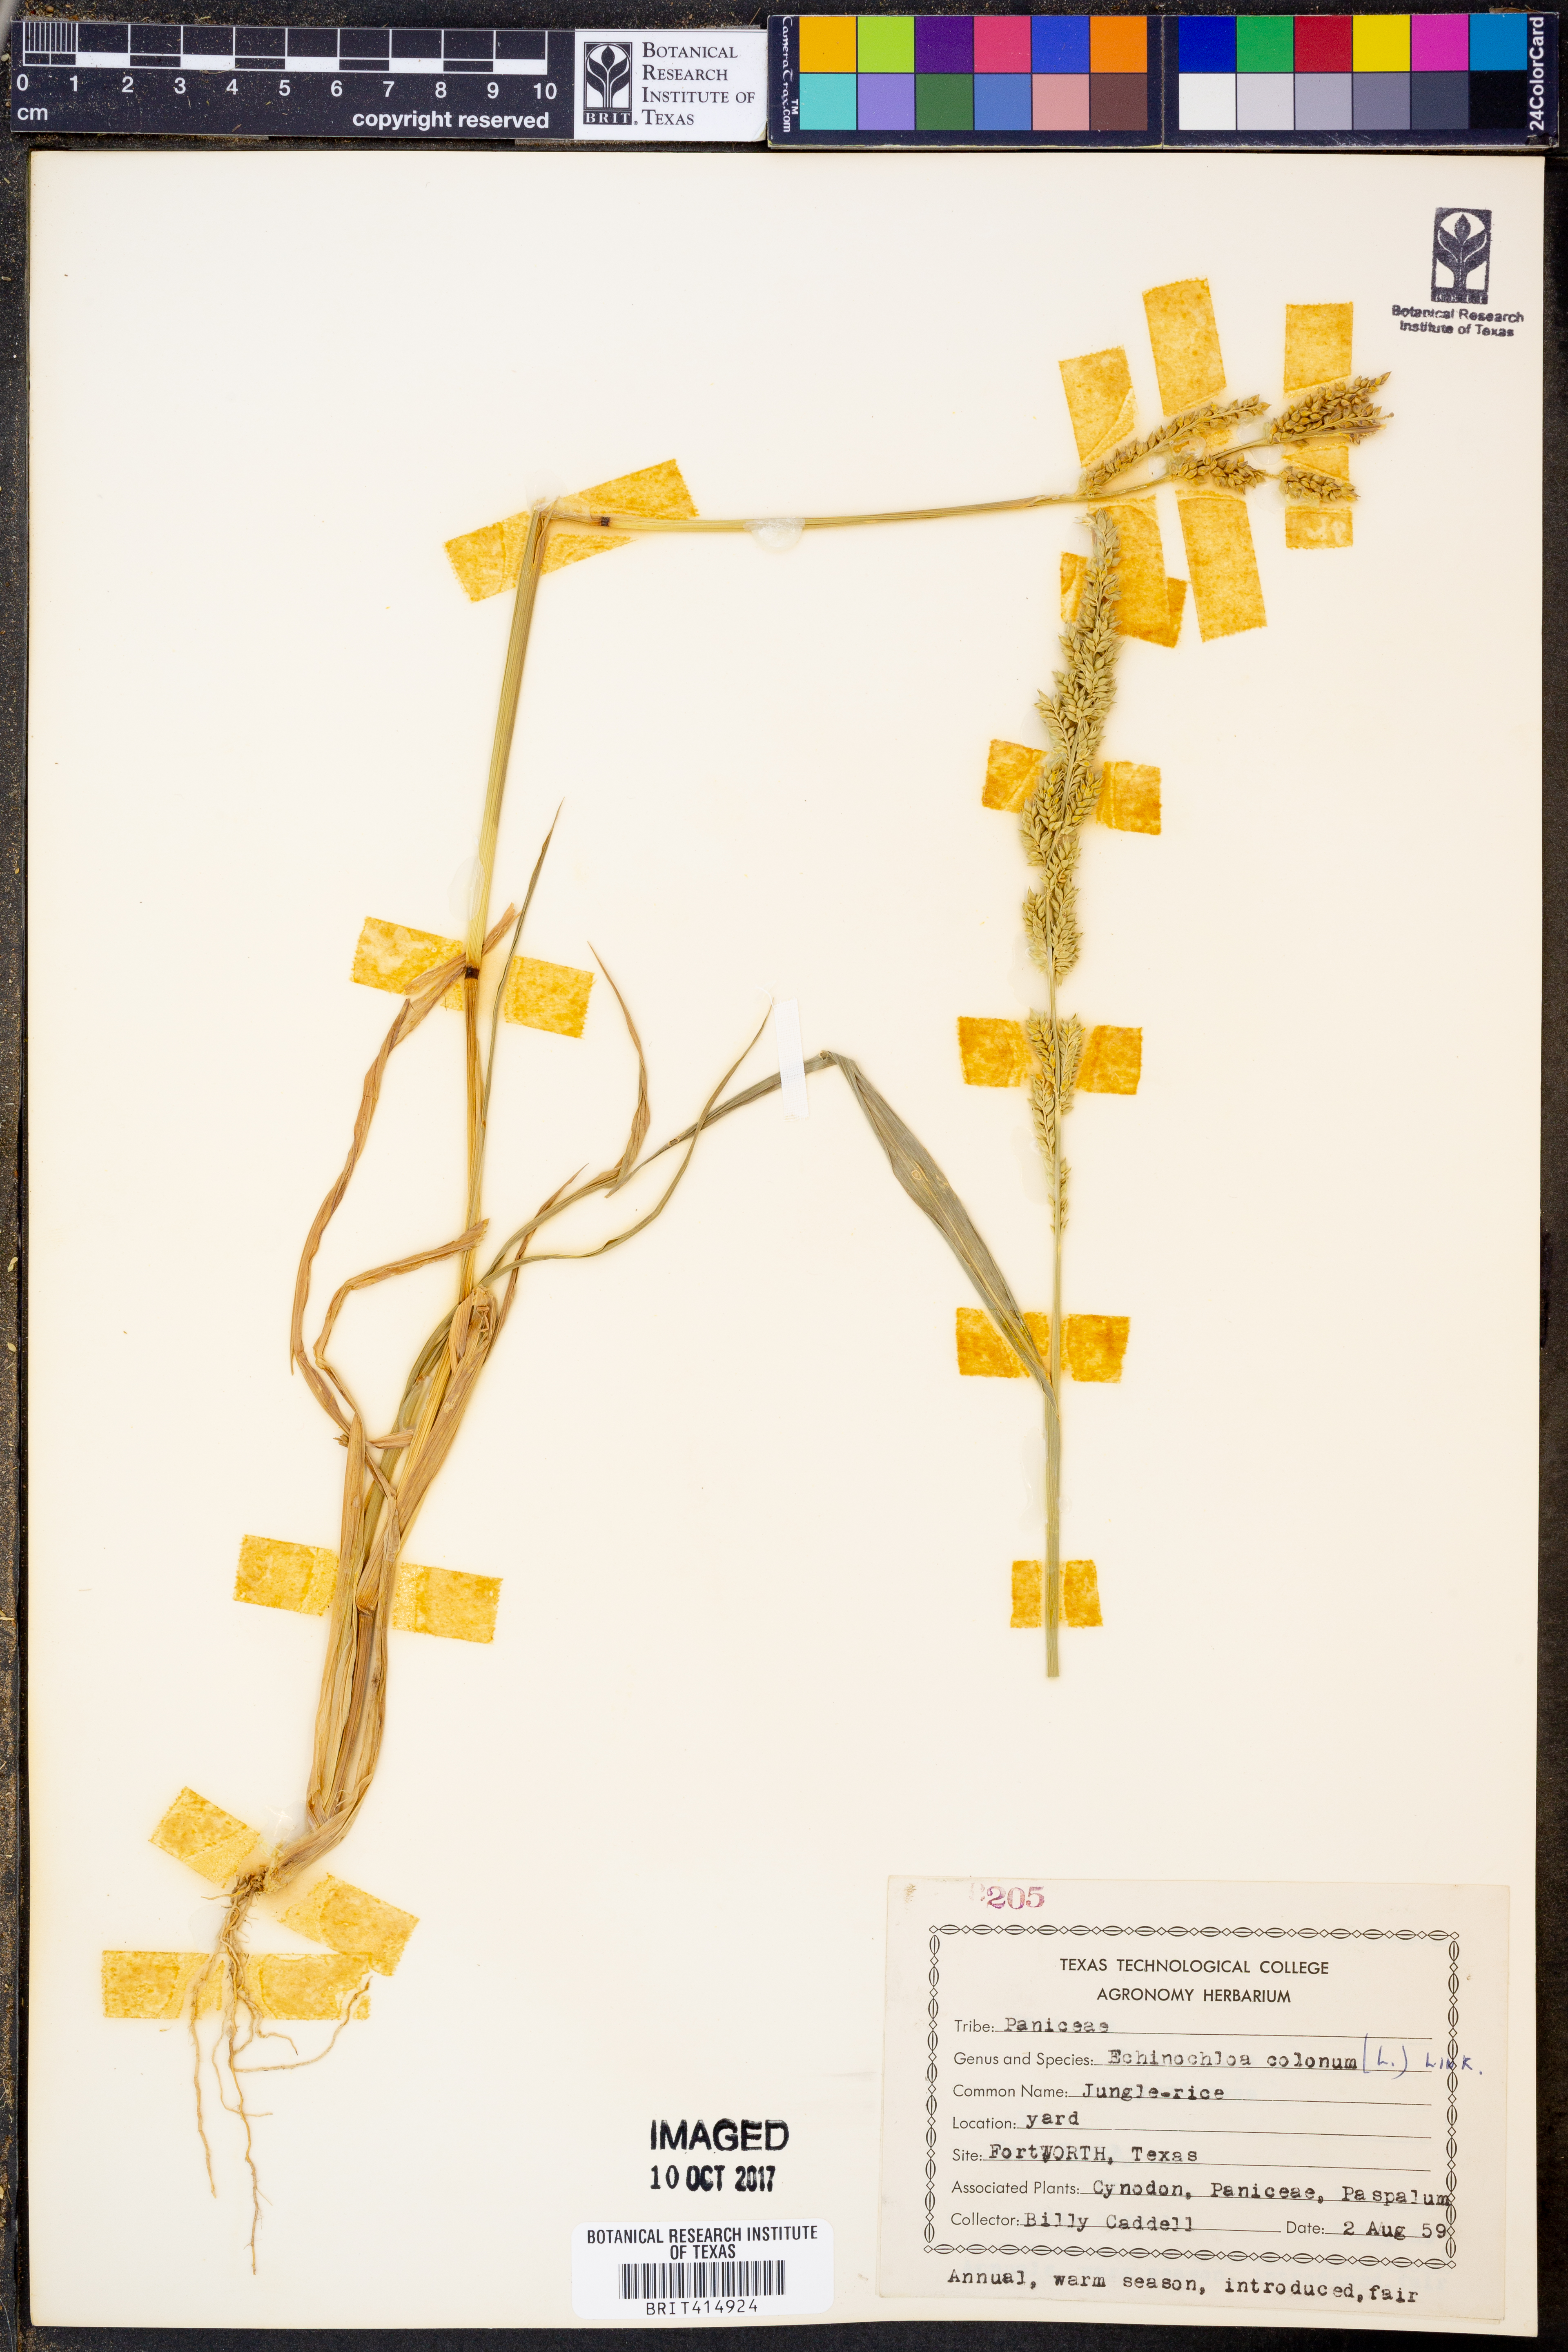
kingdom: Plantae
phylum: Tracheophyta
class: Liliopsida
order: Poales
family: Poaceae
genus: Echinochloa
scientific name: Echinochloa colonum
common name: Jungle rice
